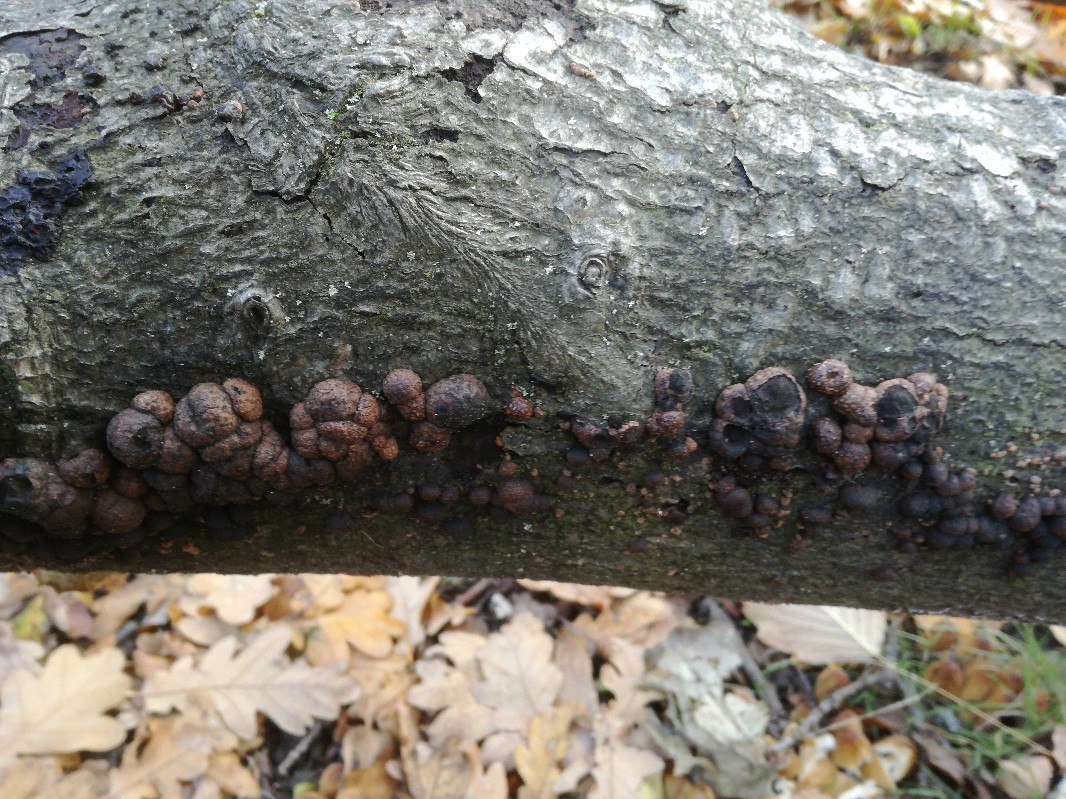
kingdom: Fungi
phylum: Ascomycota
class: Sordariomycetes
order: Xylariales
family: Hypoxylaceae
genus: Hypoxylon
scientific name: Hypoxylon fragiforme
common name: kuljordbær
